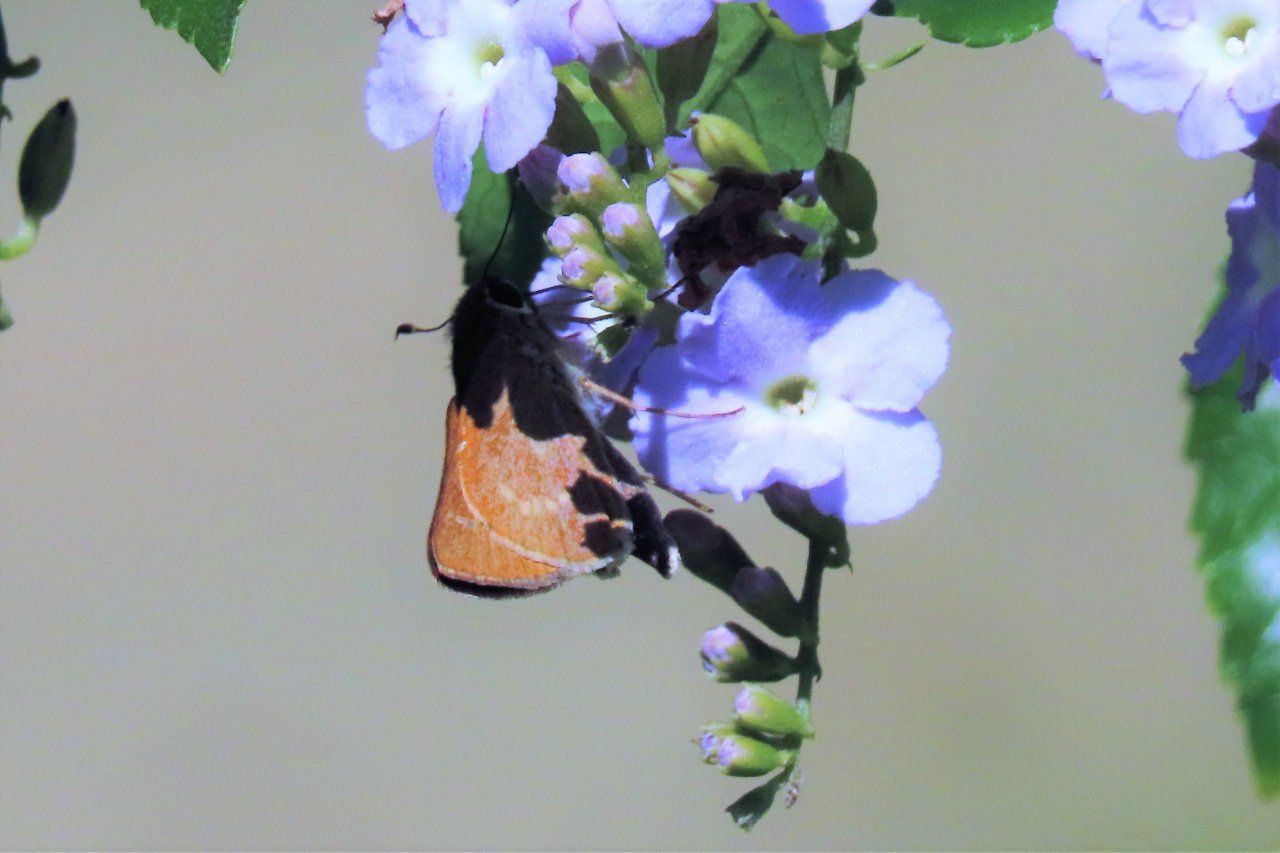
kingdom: Animalia
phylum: Arthropoda
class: Insecta
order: Lepidoptera
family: Hesperiidae
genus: Mellana
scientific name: Mellana eulogius
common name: Common Mellana
